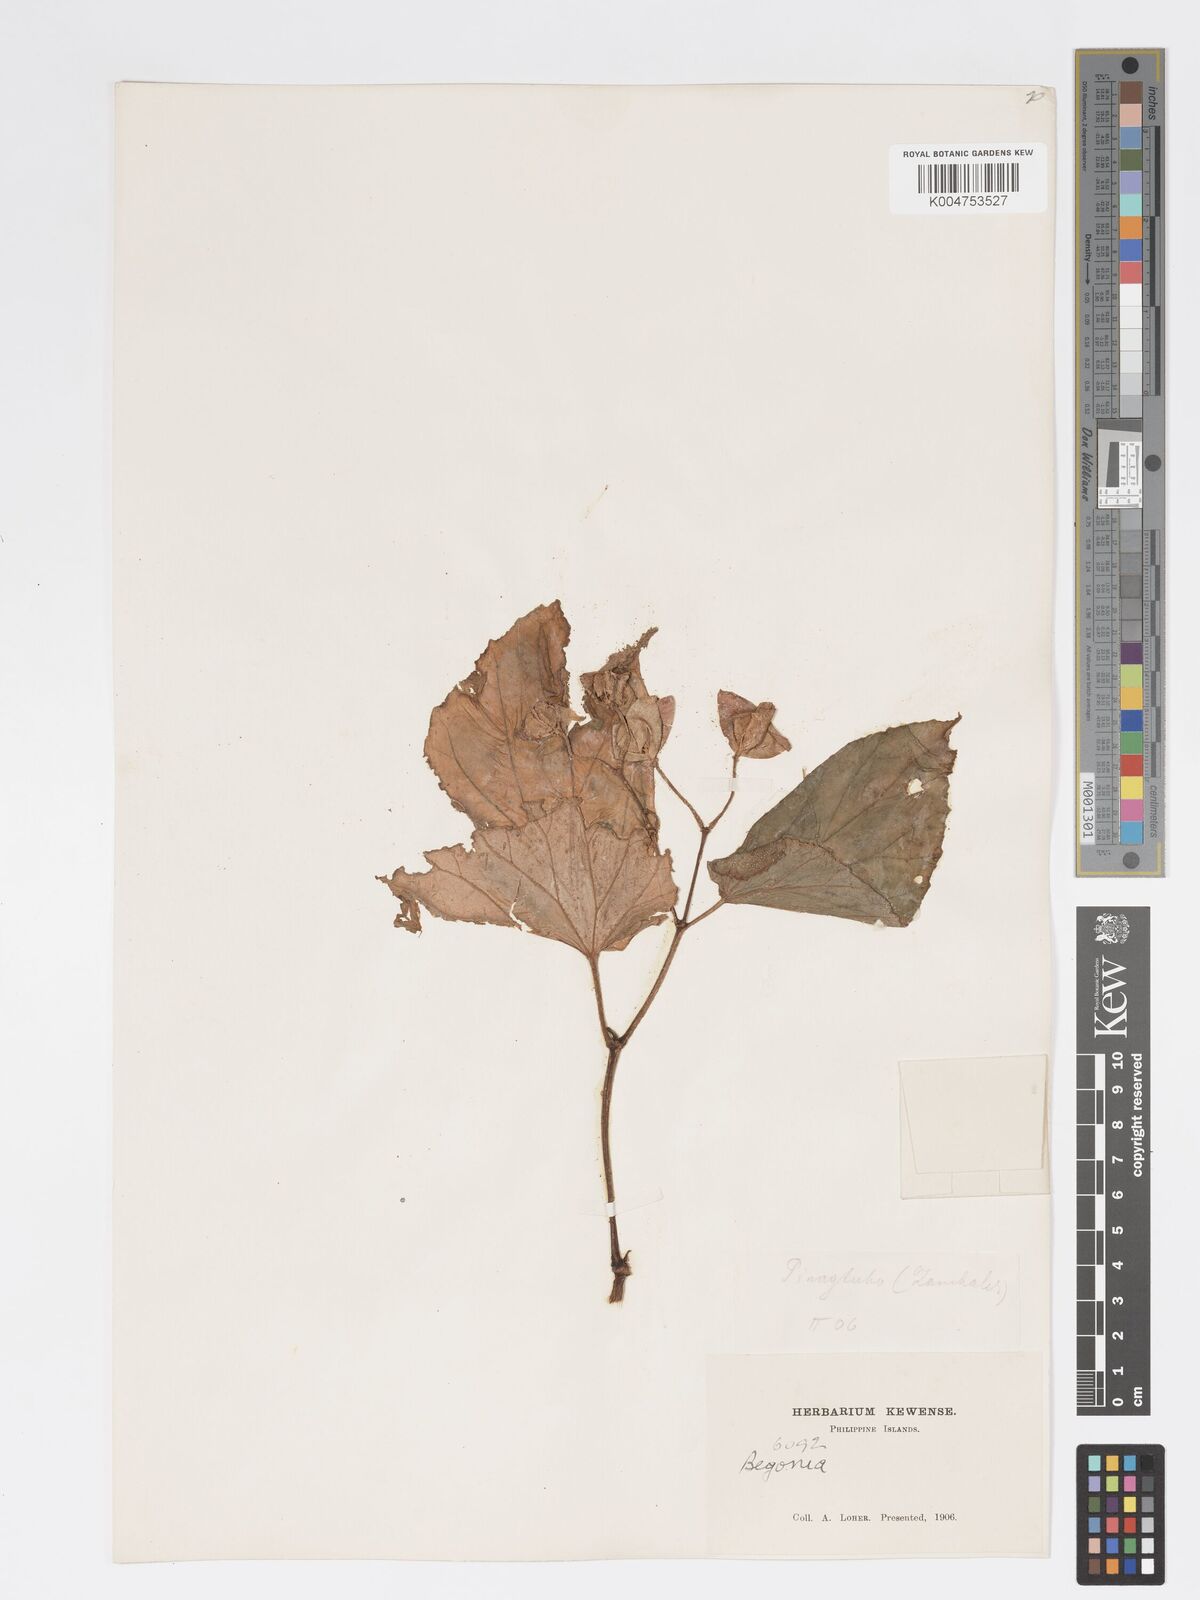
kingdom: Plantae
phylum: Tracheophyta
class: Magnoliopsida
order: Cucurbitales
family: Begoniaceae
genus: Begonia
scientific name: Begonia
